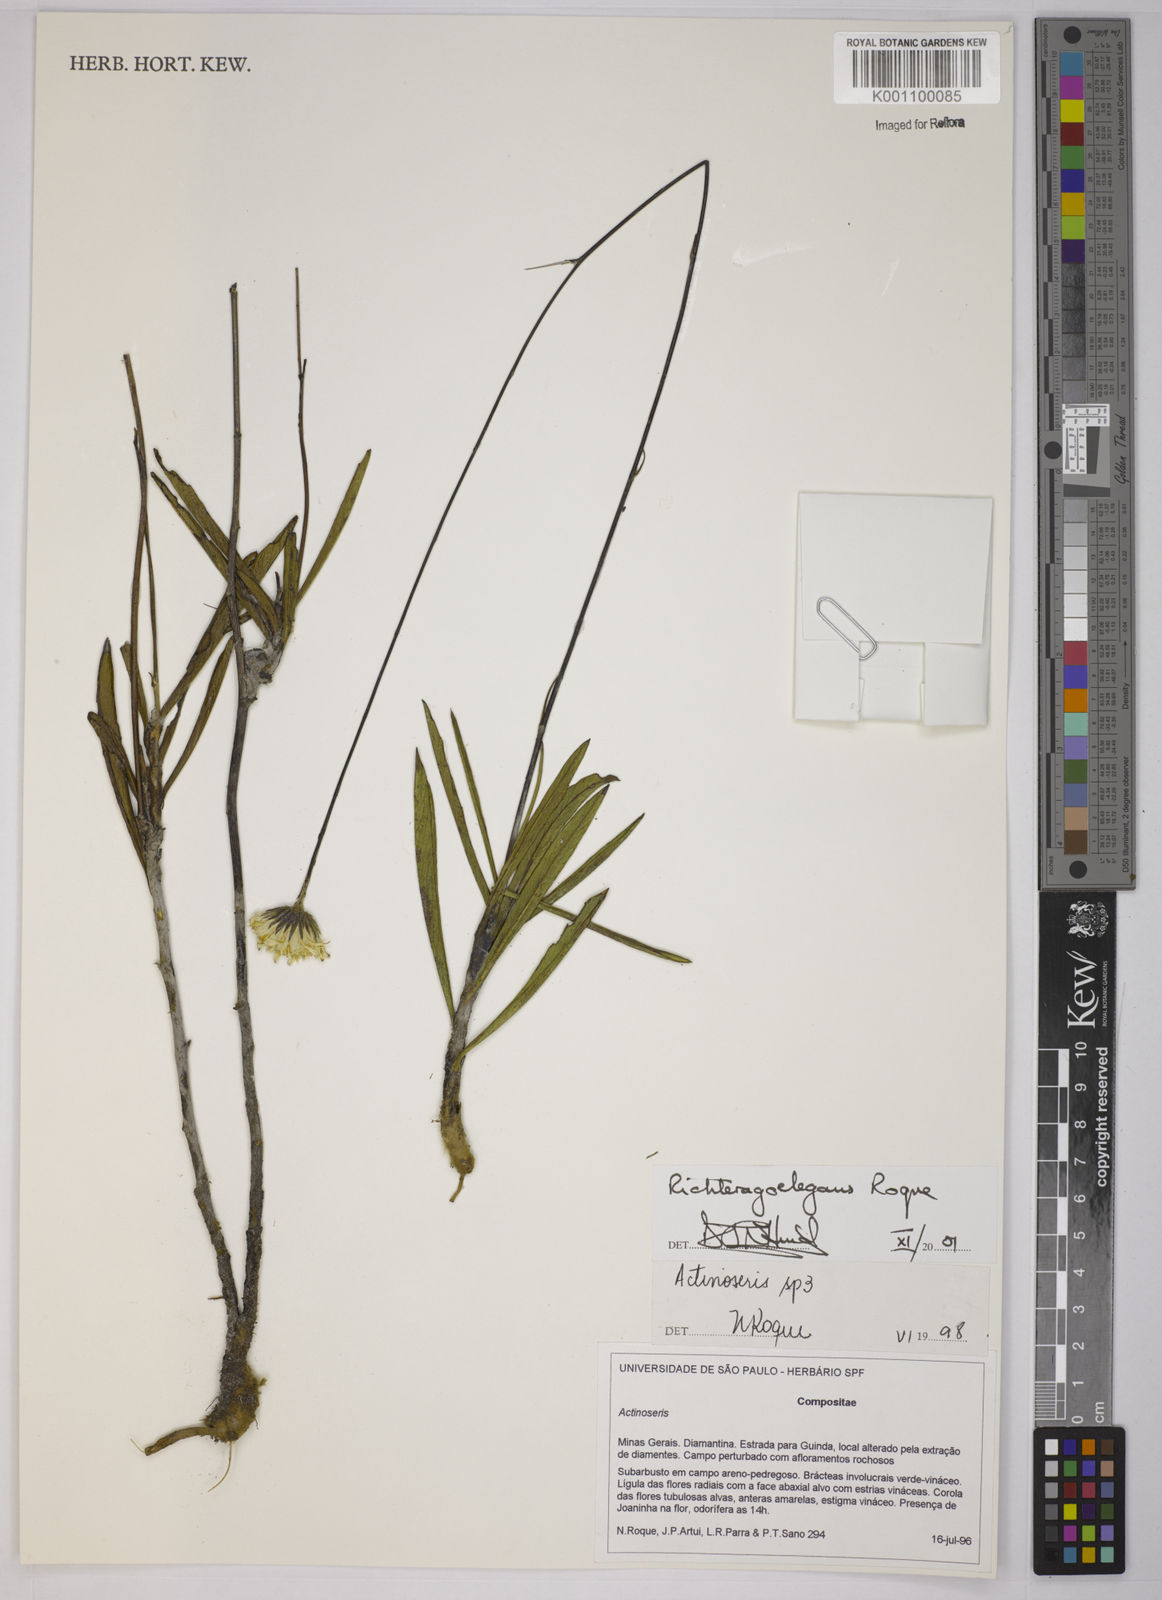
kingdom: Plantae
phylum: Tracheophyta
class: Magnoliopsida
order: Asterales
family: Asteraceae
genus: Richterago
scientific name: Richterago elegans
